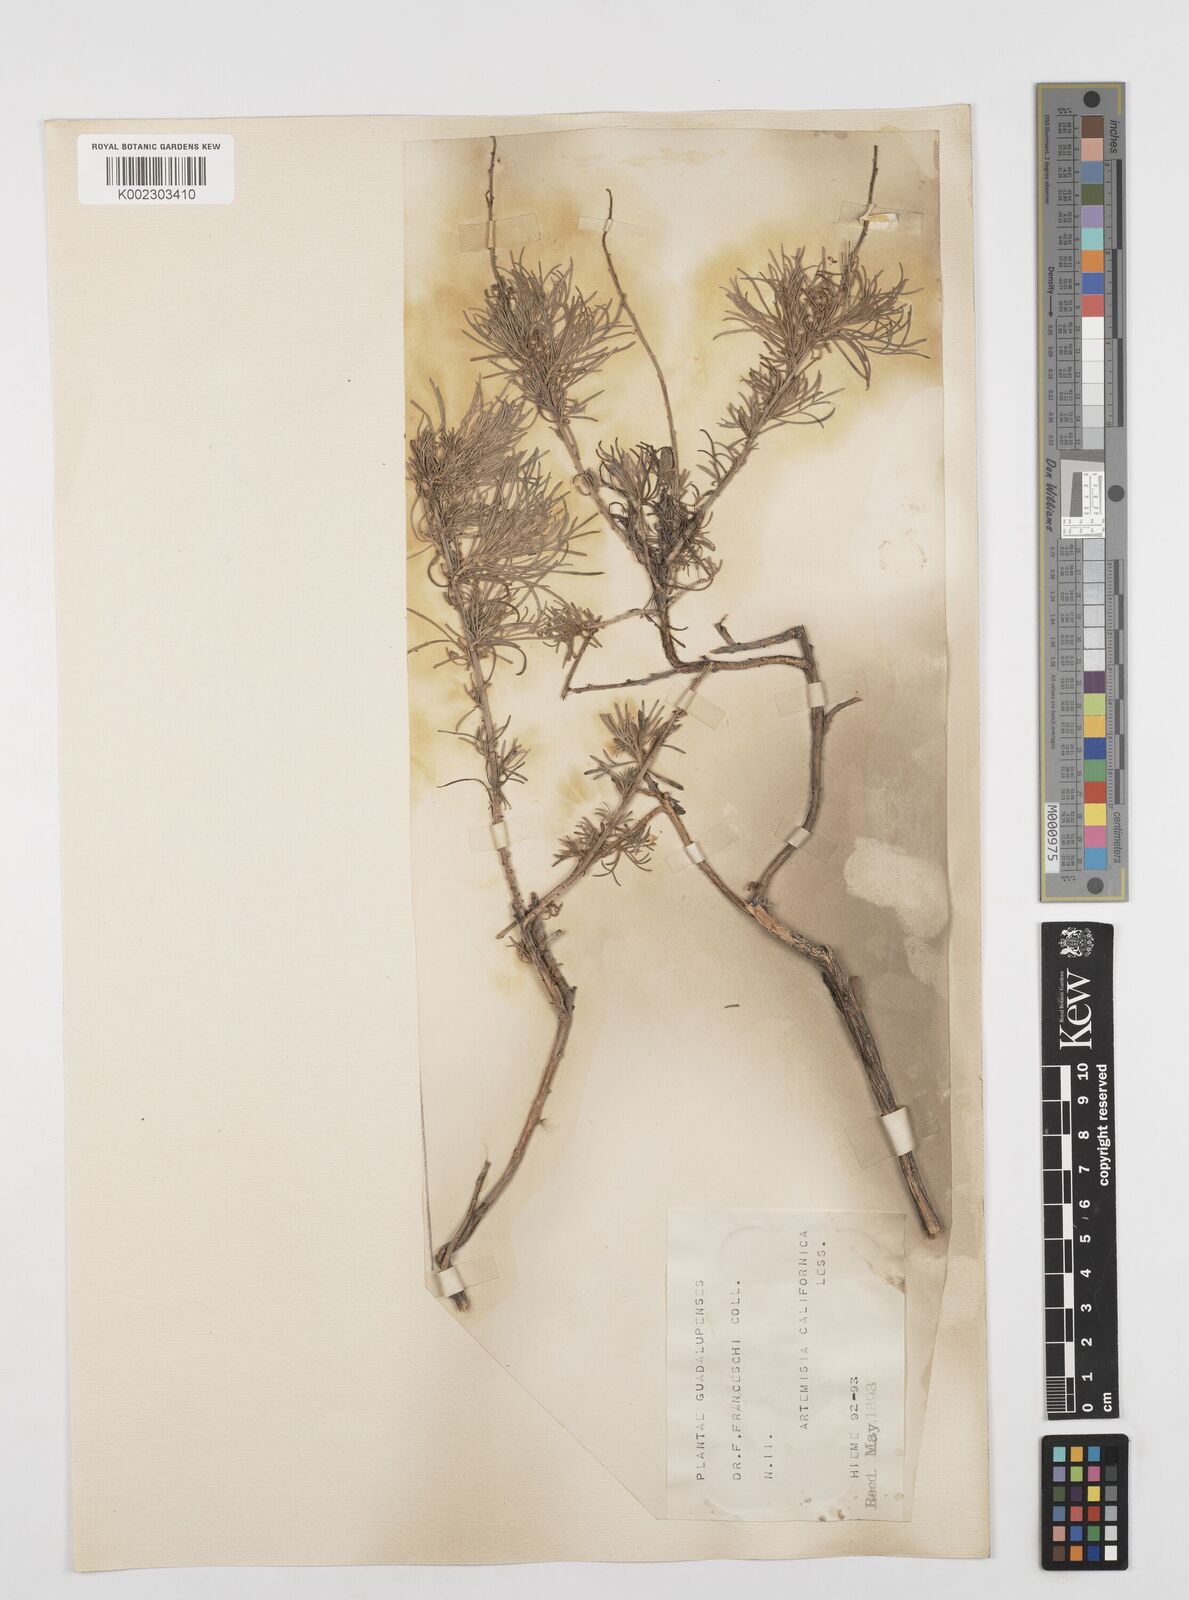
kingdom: Plantae
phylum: Tracheophyta
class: Magnoliopsida
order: Asterales
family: Asteraceae
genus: Artemisia
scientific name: Artemisia californica
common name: California sagebrush
